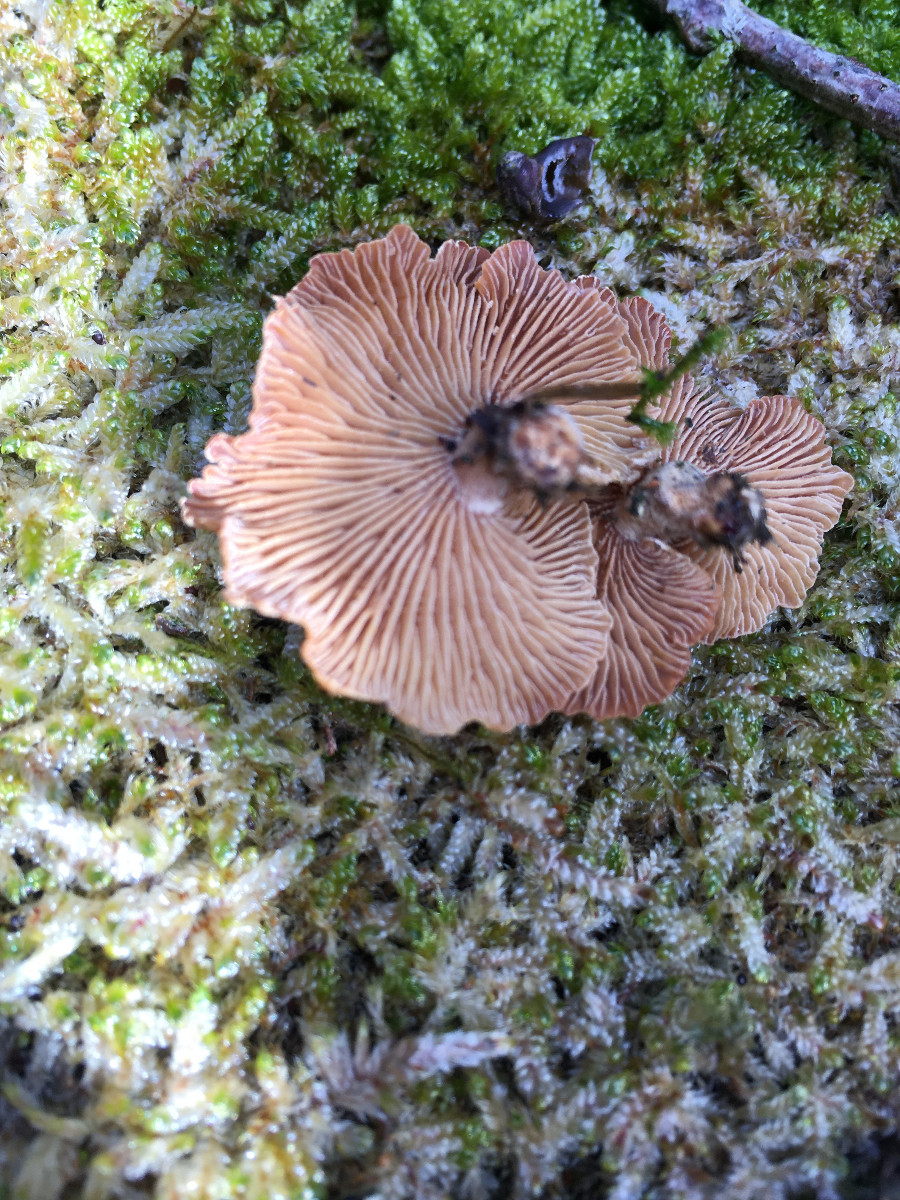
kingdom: Fungi
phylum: Basidiomycota
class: Agaricomycetes
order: Agaricales
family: Mycenaceae
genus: Panellus
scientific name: Panellus stipticus
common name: kliddet epaulethat
